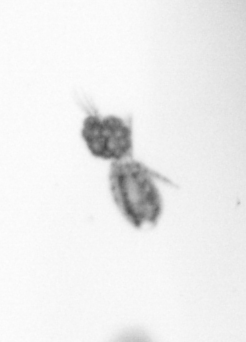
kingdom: Animalia
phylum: Arthropoda
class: Copepoda
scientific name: Copepoda
